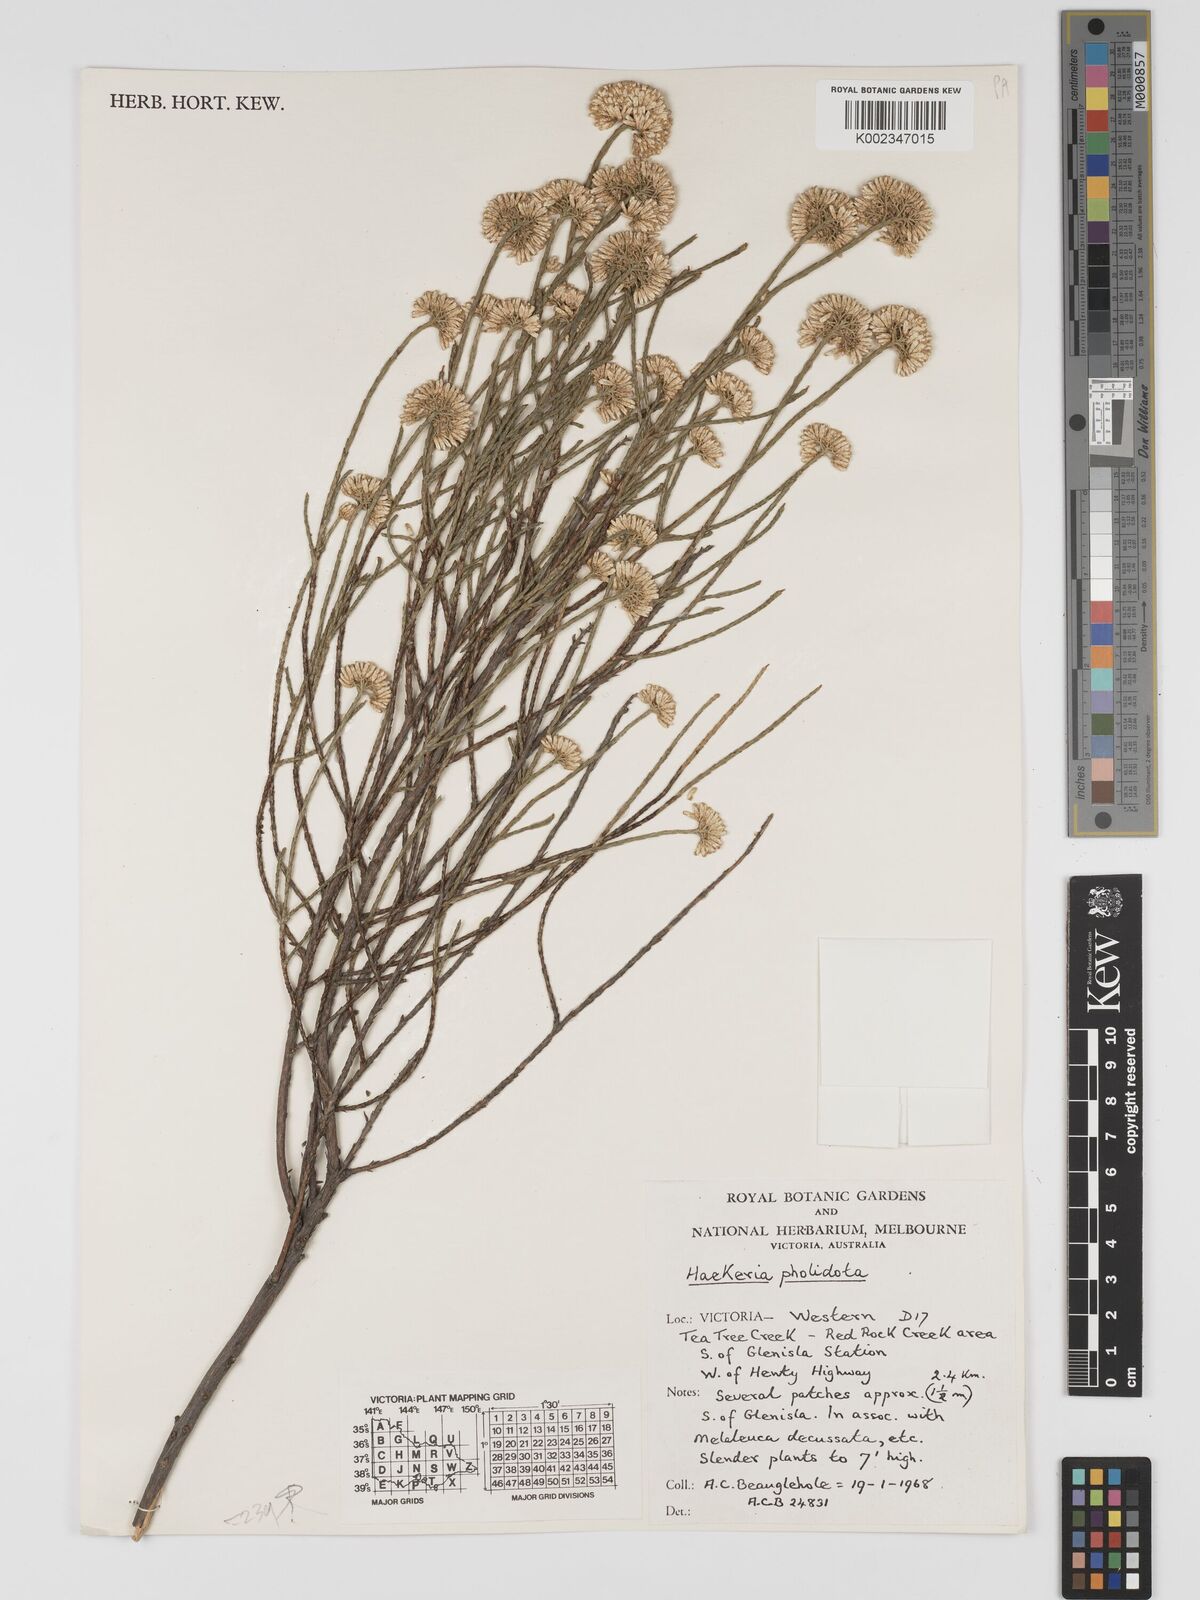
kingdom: Plantae
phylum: Tracheophyta
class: Magnoliopsida
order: Asterales
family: Asteraceae
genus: Haeckeria
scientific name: Haeckeria pholidota
